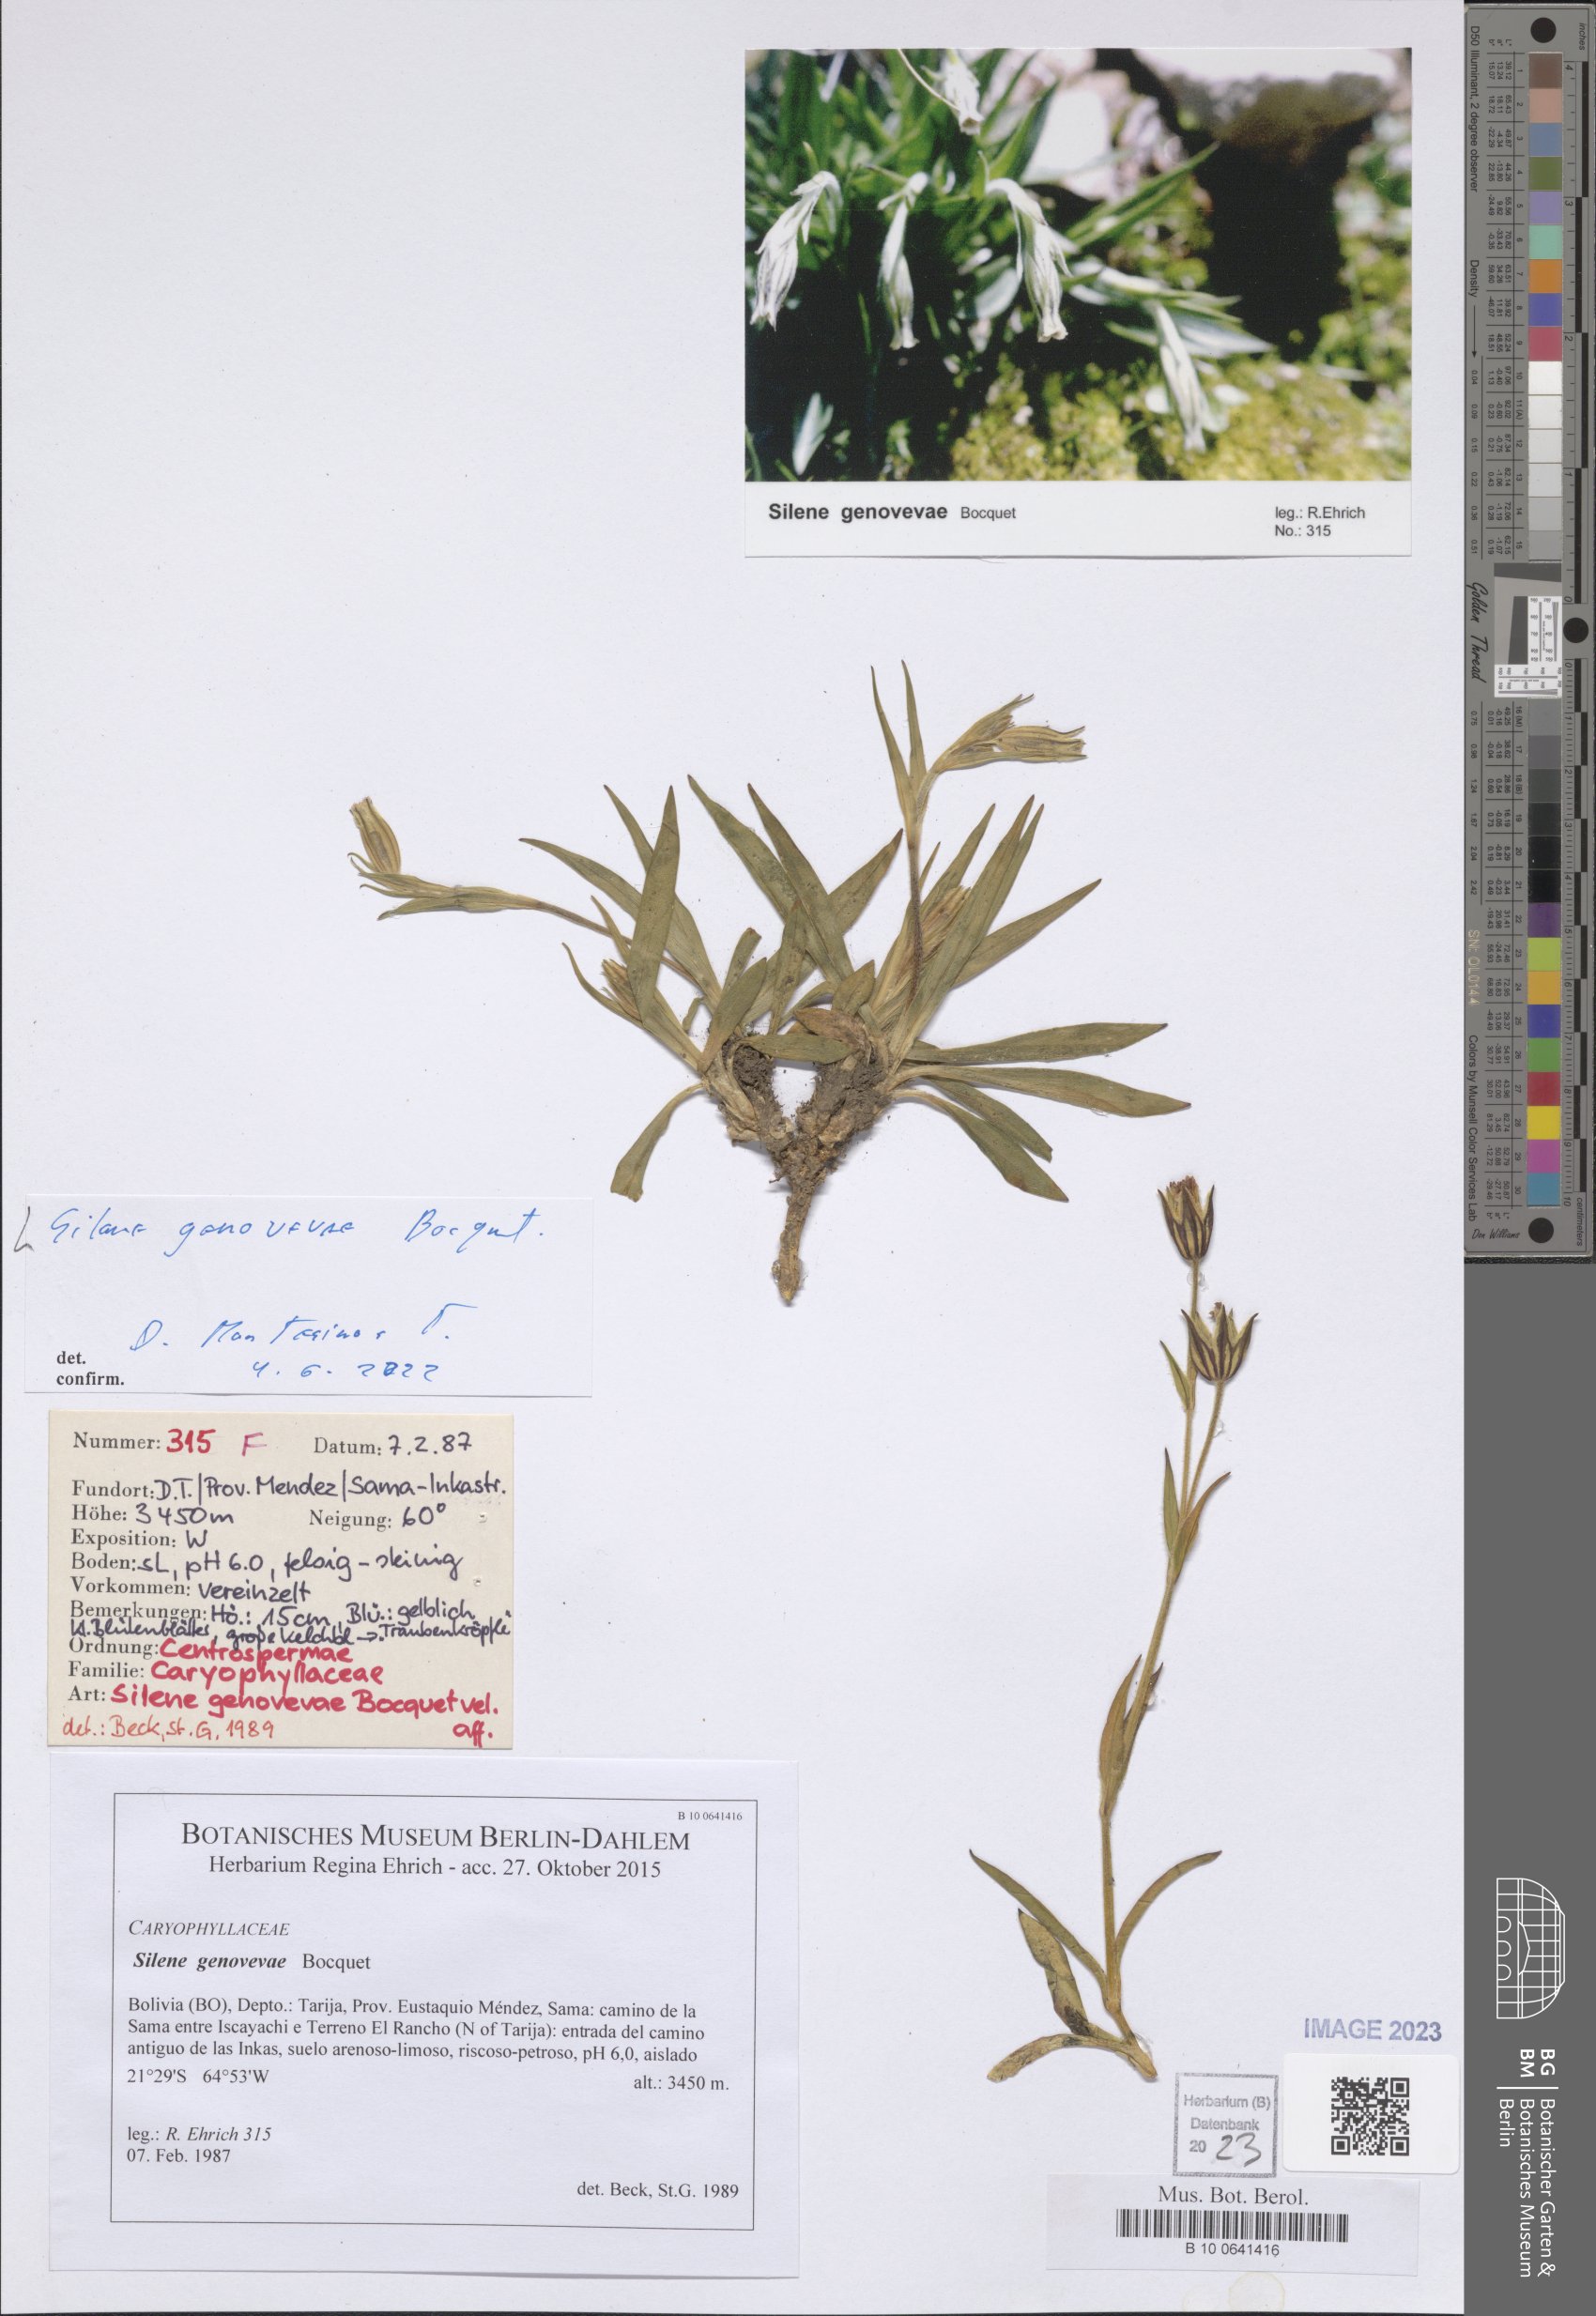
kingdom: Plantae
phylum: Tracheophyta
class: Magnoliopsida
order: Caryophyllales
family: Caryophyllaceae
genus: Silene
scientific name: Silene genovevae
